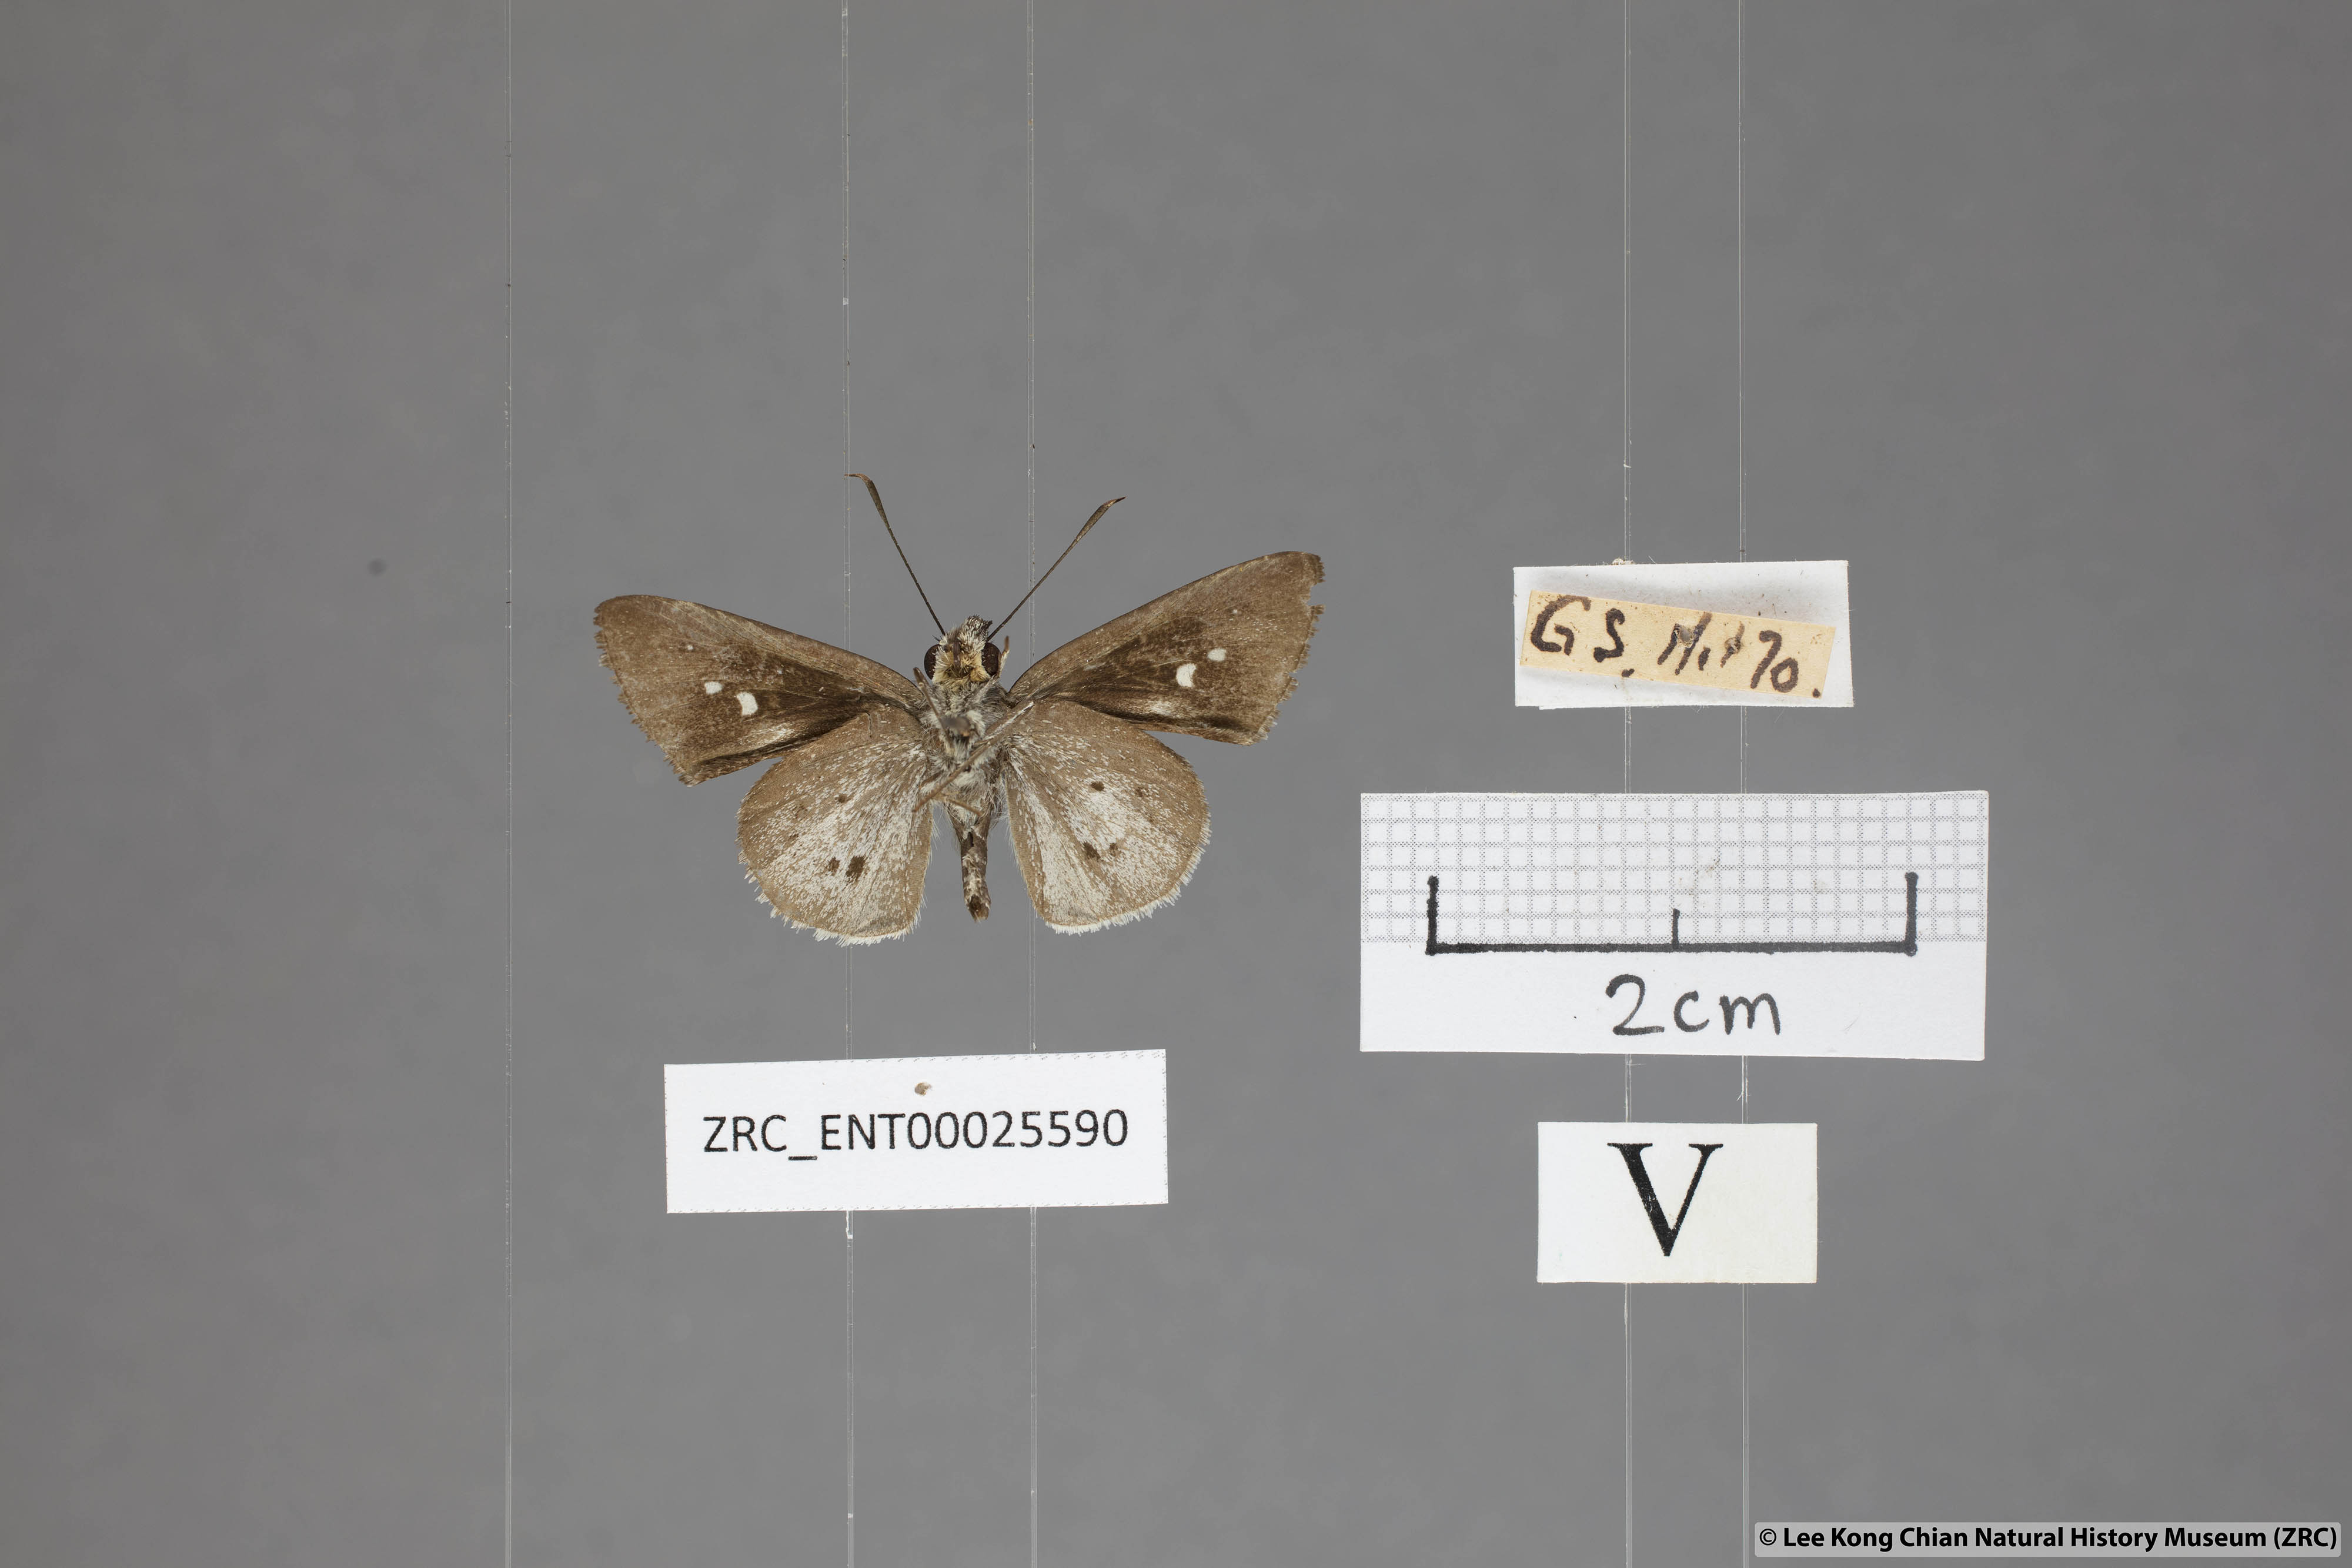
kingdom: Animalia
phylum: Arthropoda
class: Insecta
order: Lepidoptera
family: Hesperiidae
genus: Suastus
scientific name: Suastus minuta
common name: Small palm bob
